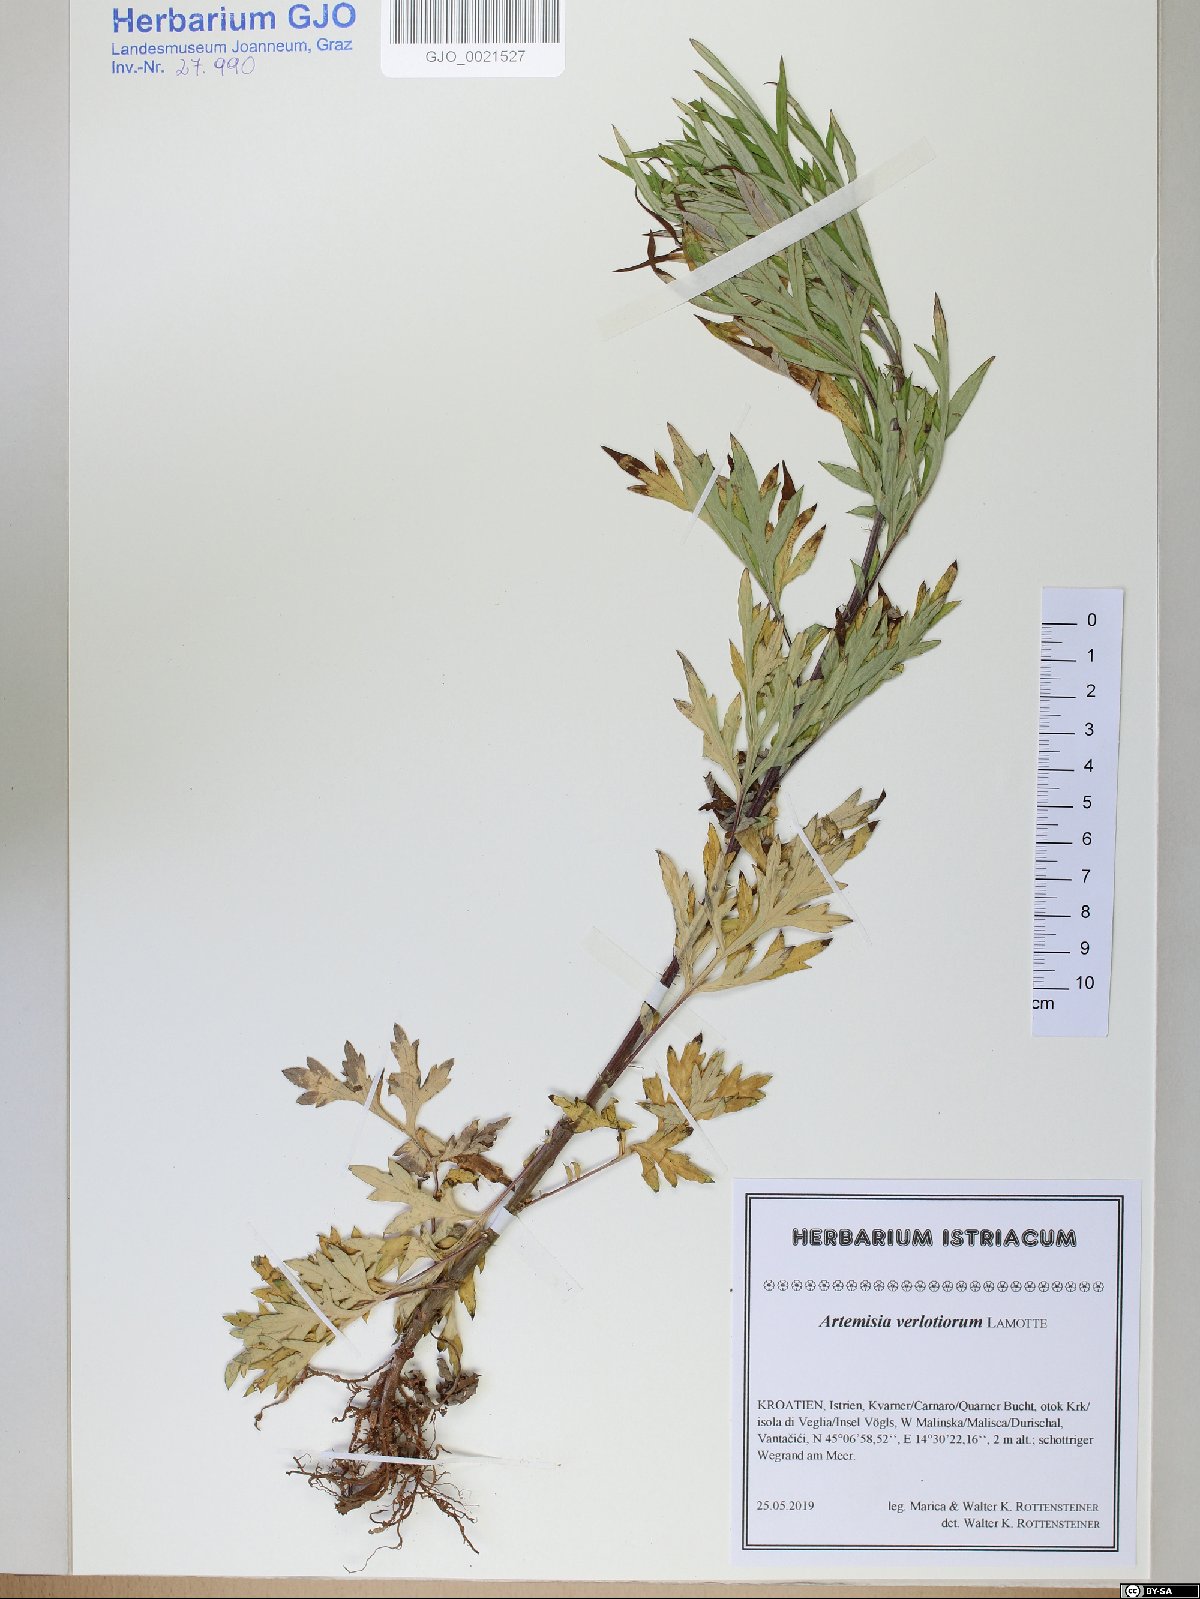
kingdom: Plantae
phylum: Tracheophyta
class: Magnoliopsida
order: Asterales
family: Asteraceae
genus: Artemisia
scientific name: Artemisia verlotiorum
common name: Chinese mugwort
